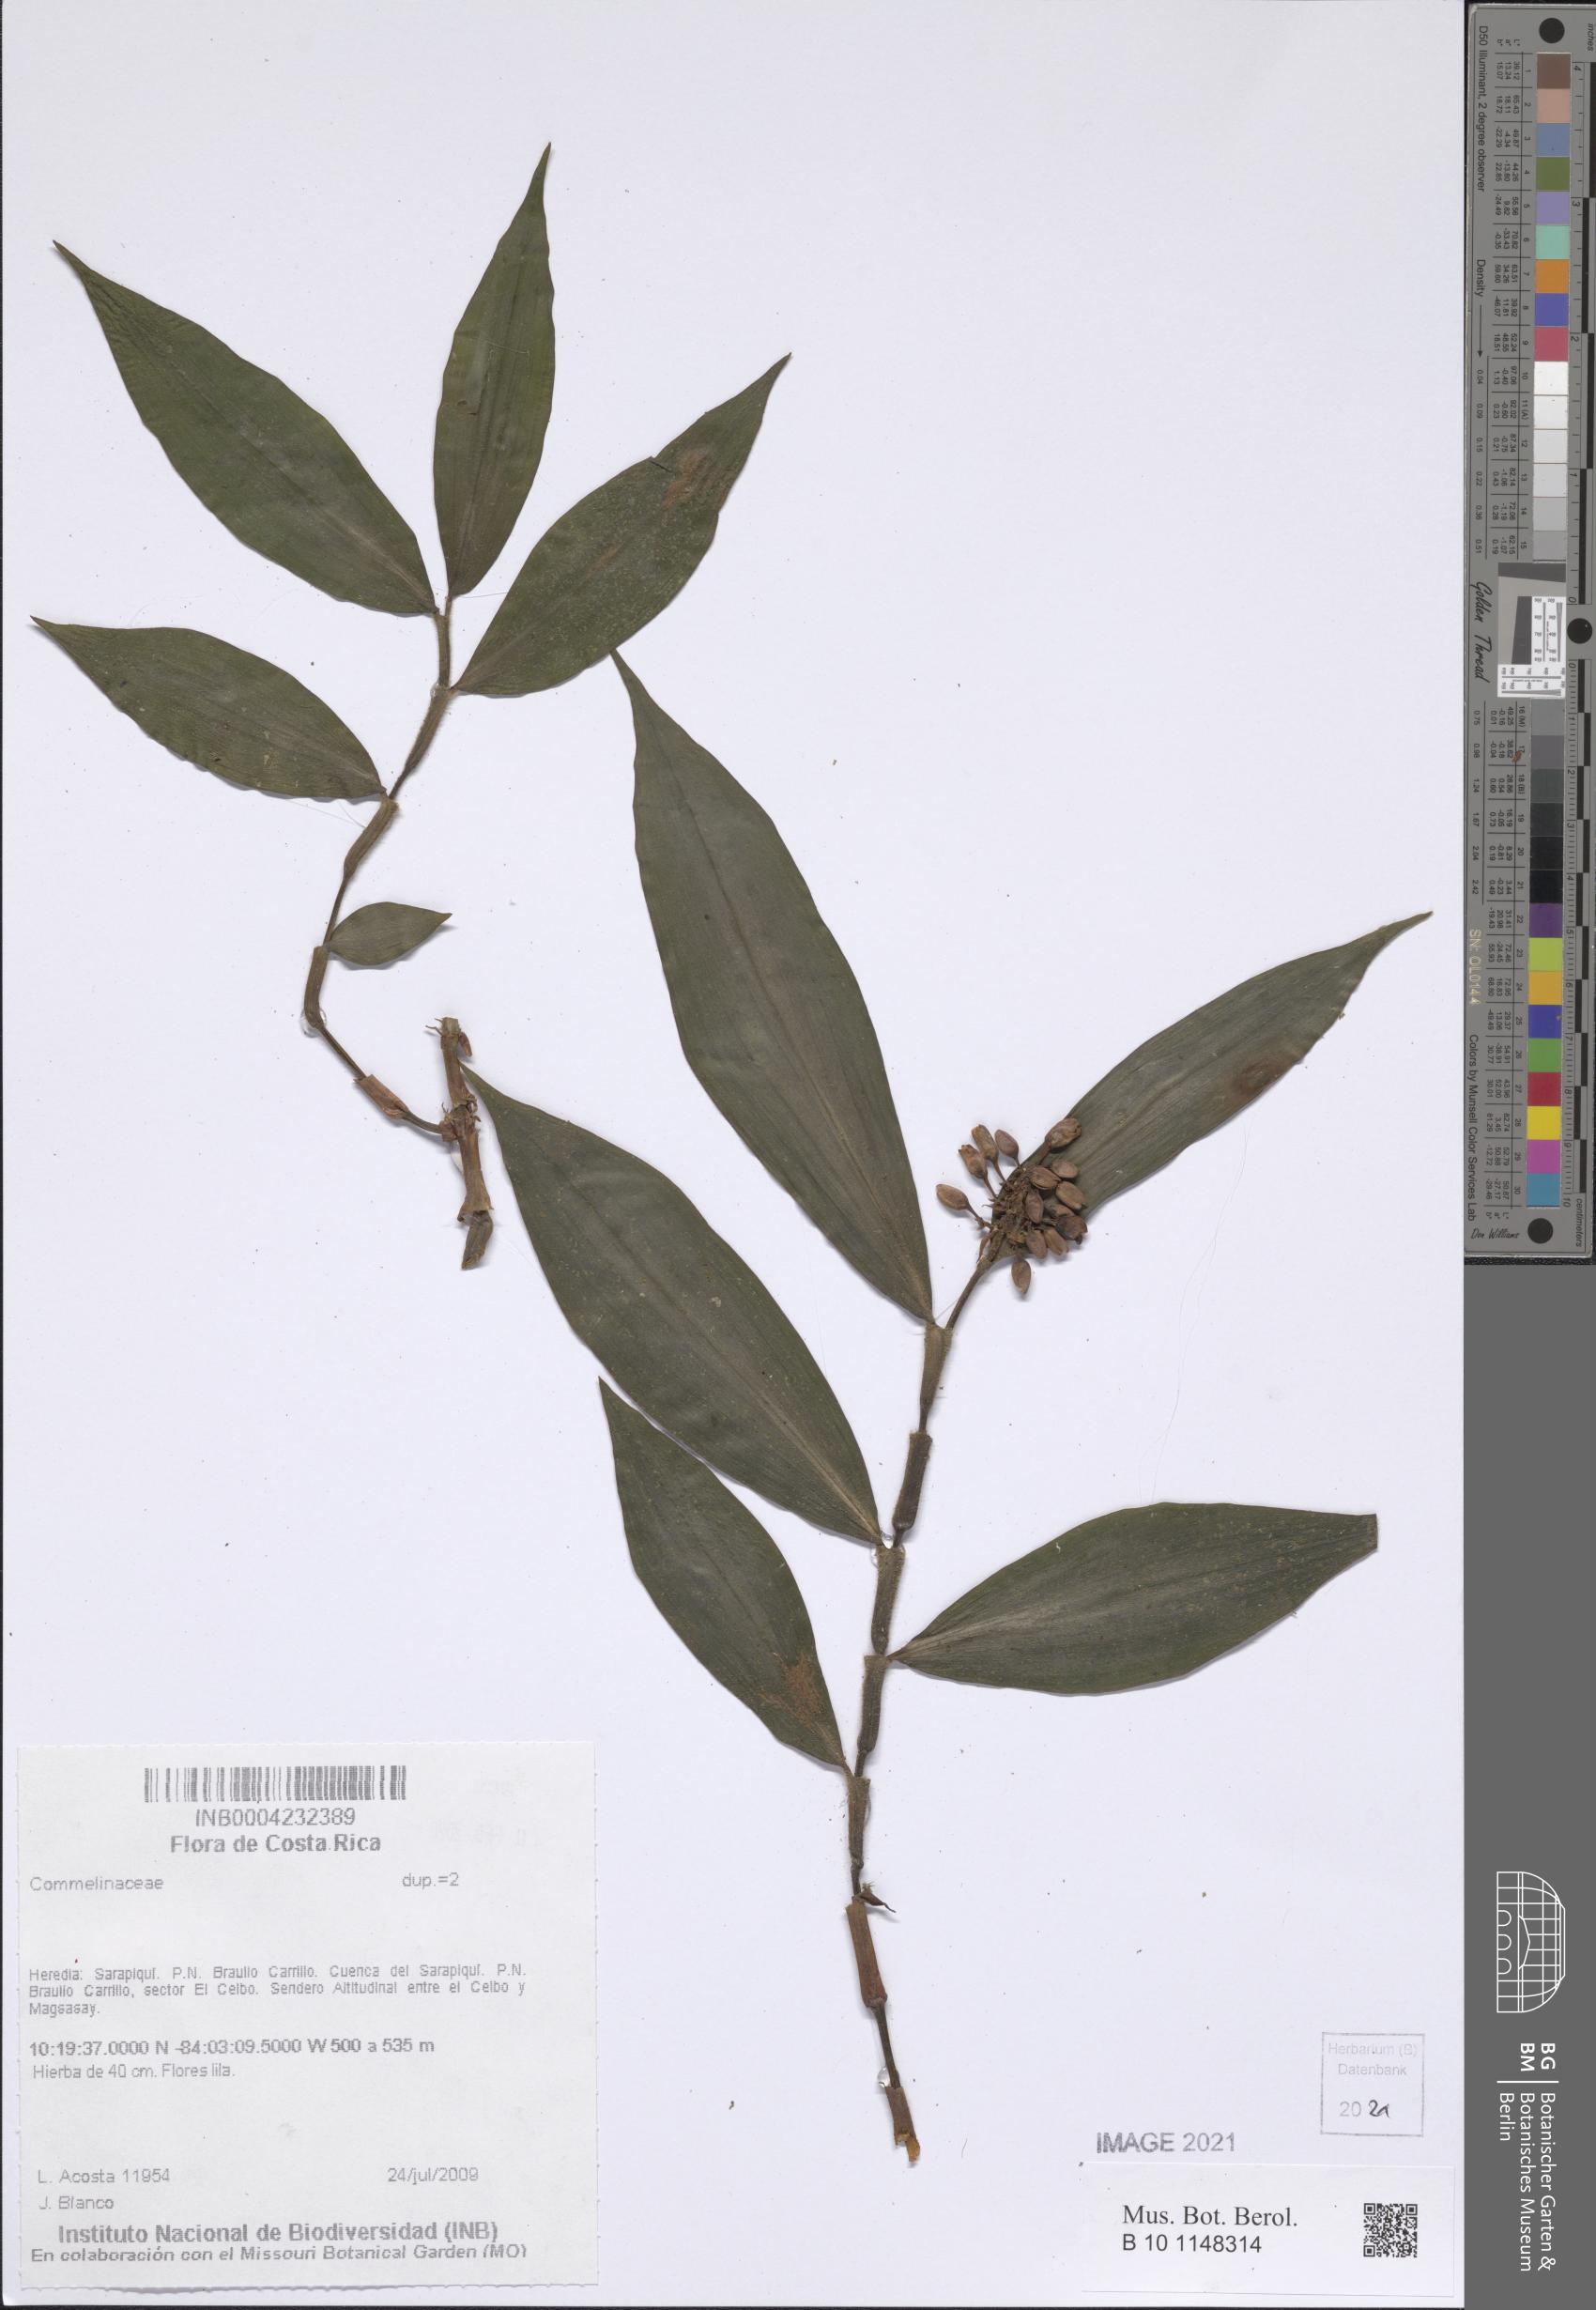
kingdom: Plantae
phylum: Tracheophyta
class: Liliopsida
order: Commelinales
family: Commelinaceae
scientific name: Commelinaceae
